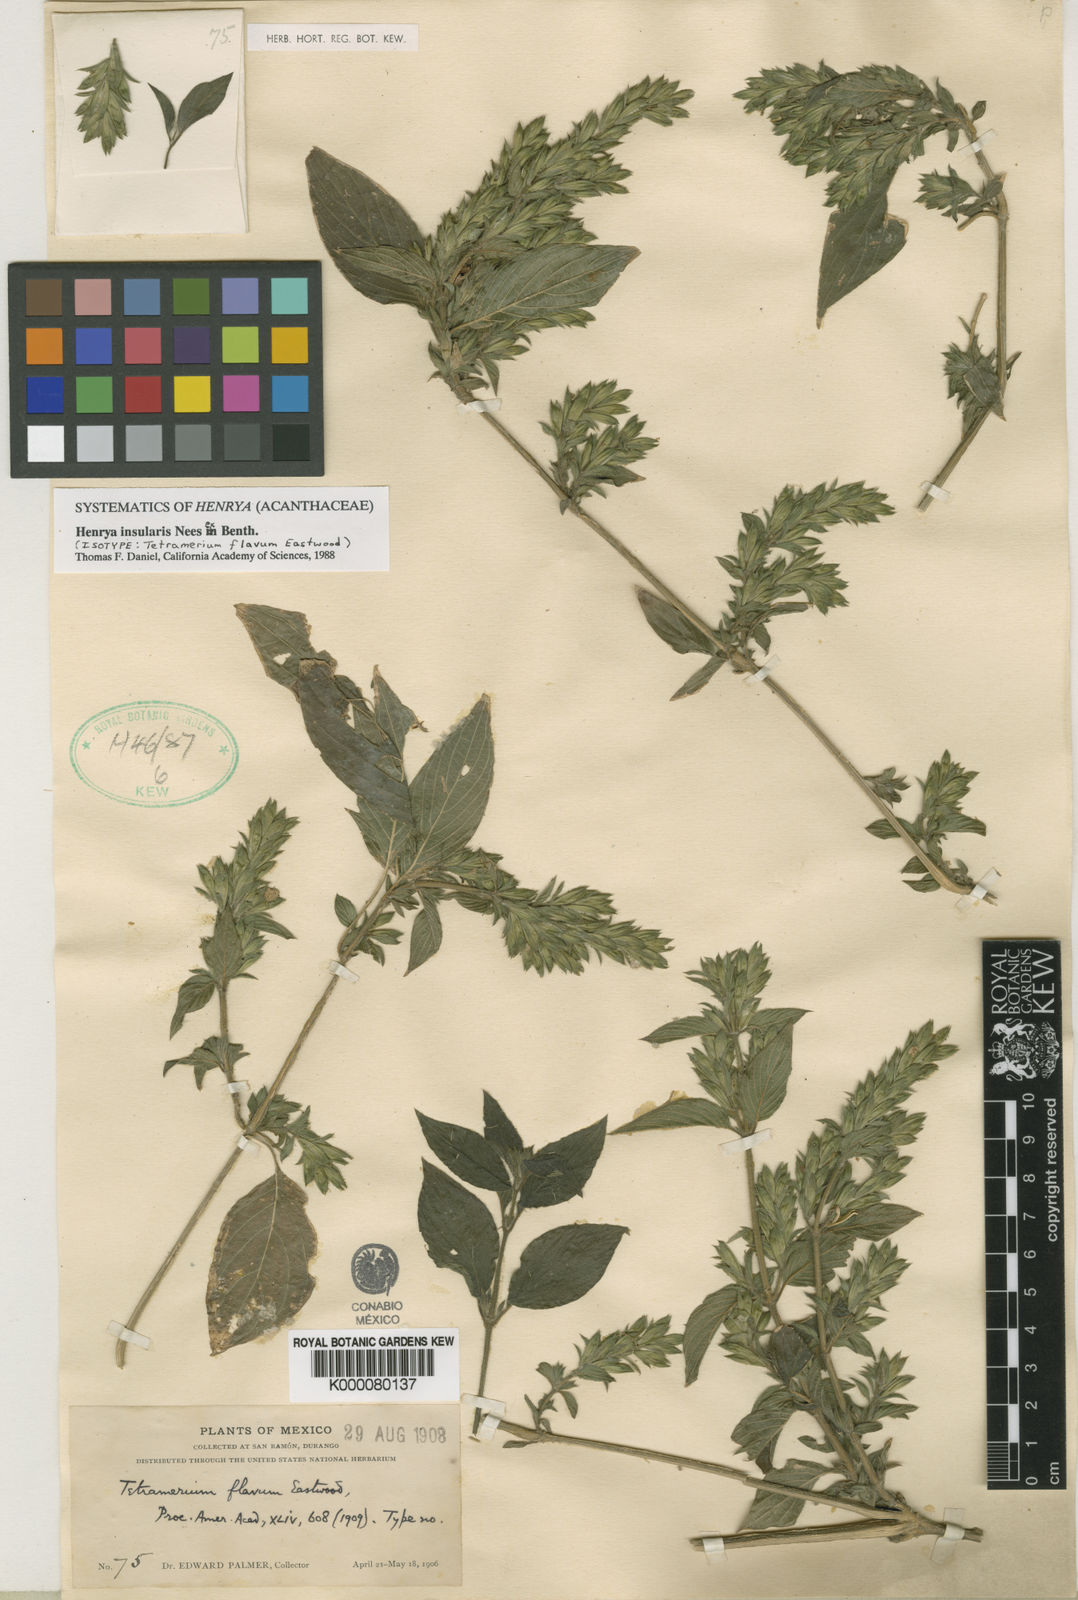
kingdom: Plantae
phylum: Tracheophyta
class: Magnoliopsida
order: Lamiales
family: Acanthaceae
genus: Henrya
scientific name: Henrya
